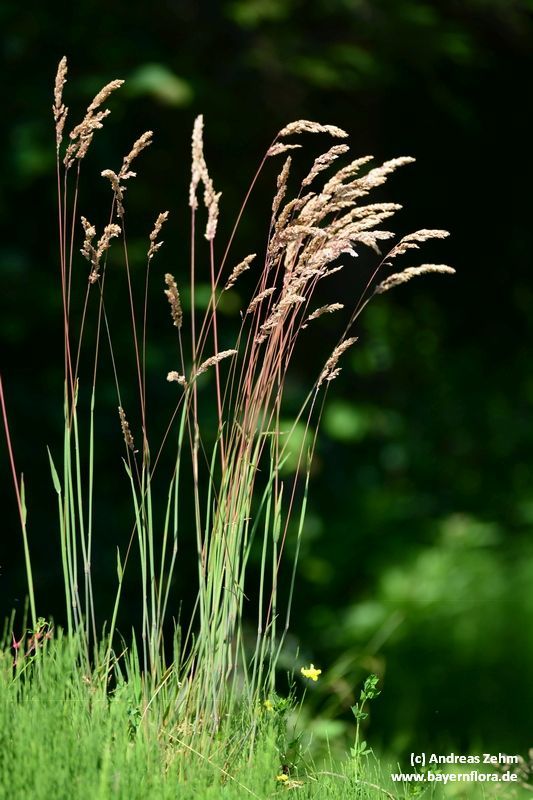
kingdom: Plantae
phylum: Tracheophyta
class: Liliopsida
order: Poales
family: Poaceae
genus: Holcus
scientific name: Holcus lanatus
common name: Yorkshire-fog
